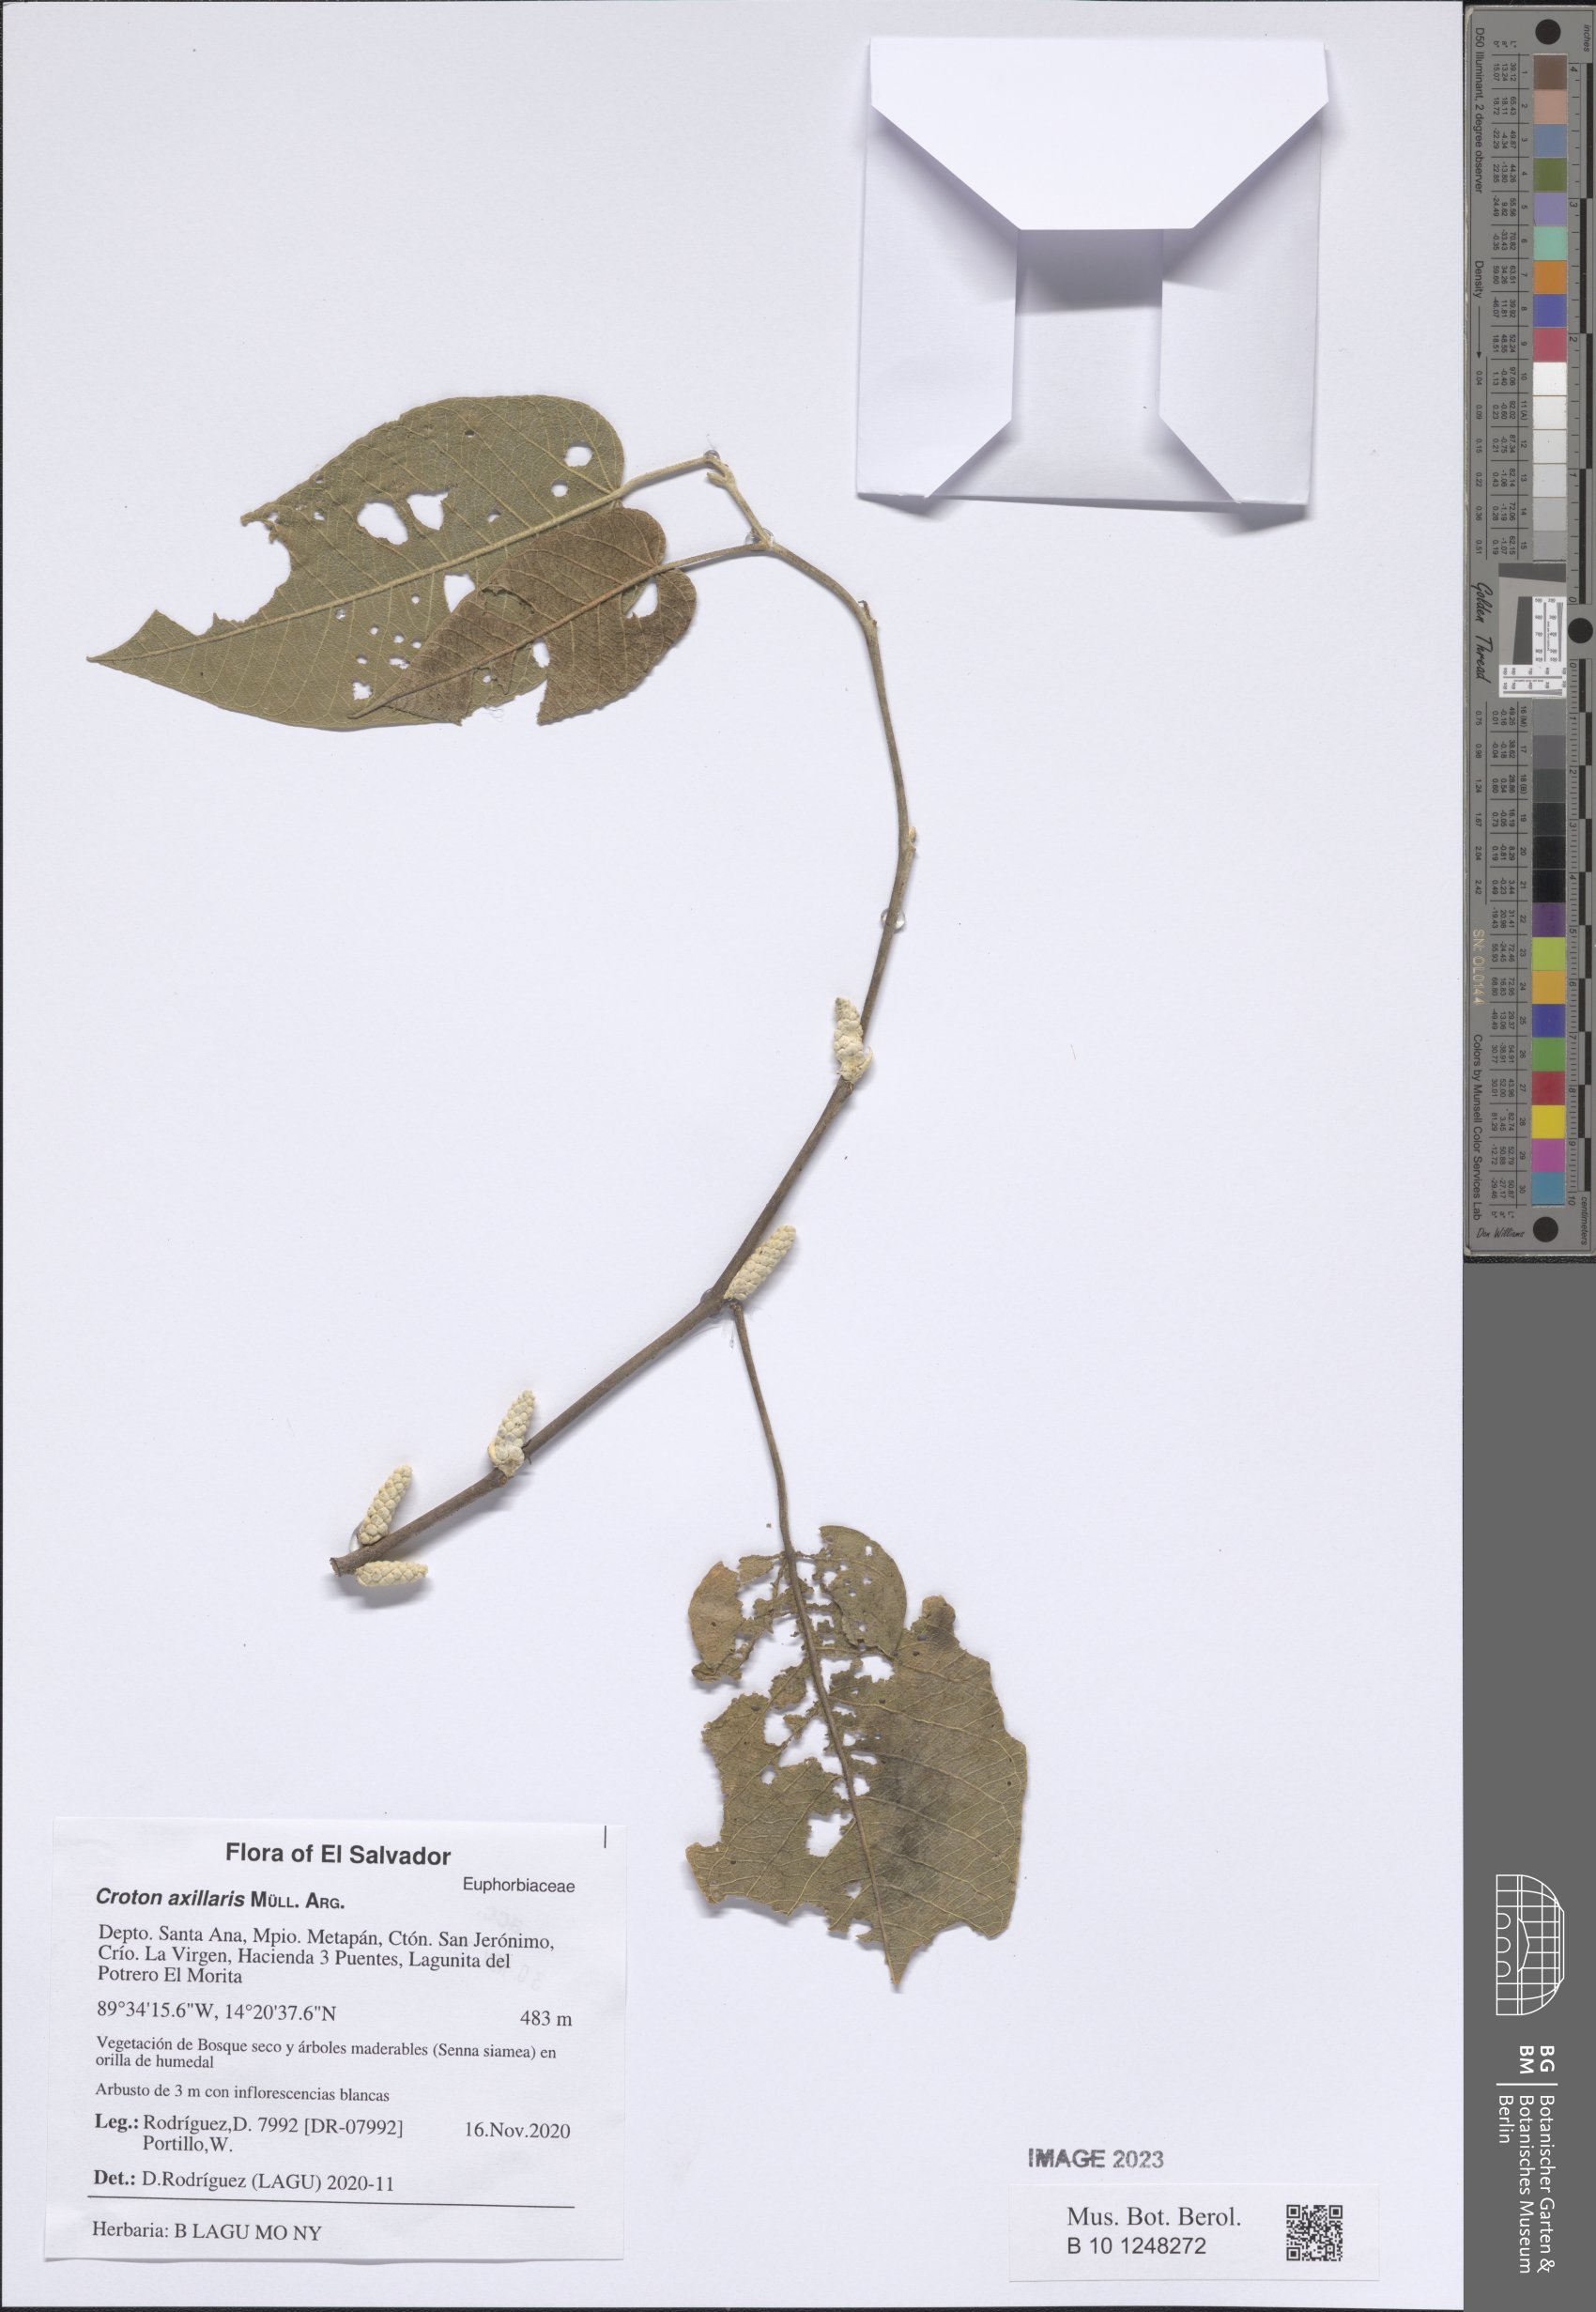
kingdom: Plantae
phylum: Tracheophyta
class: Magnoliopsida
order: Malpighiales
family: Euphorbiaceae
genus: Croton
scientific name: Croton axillaris
